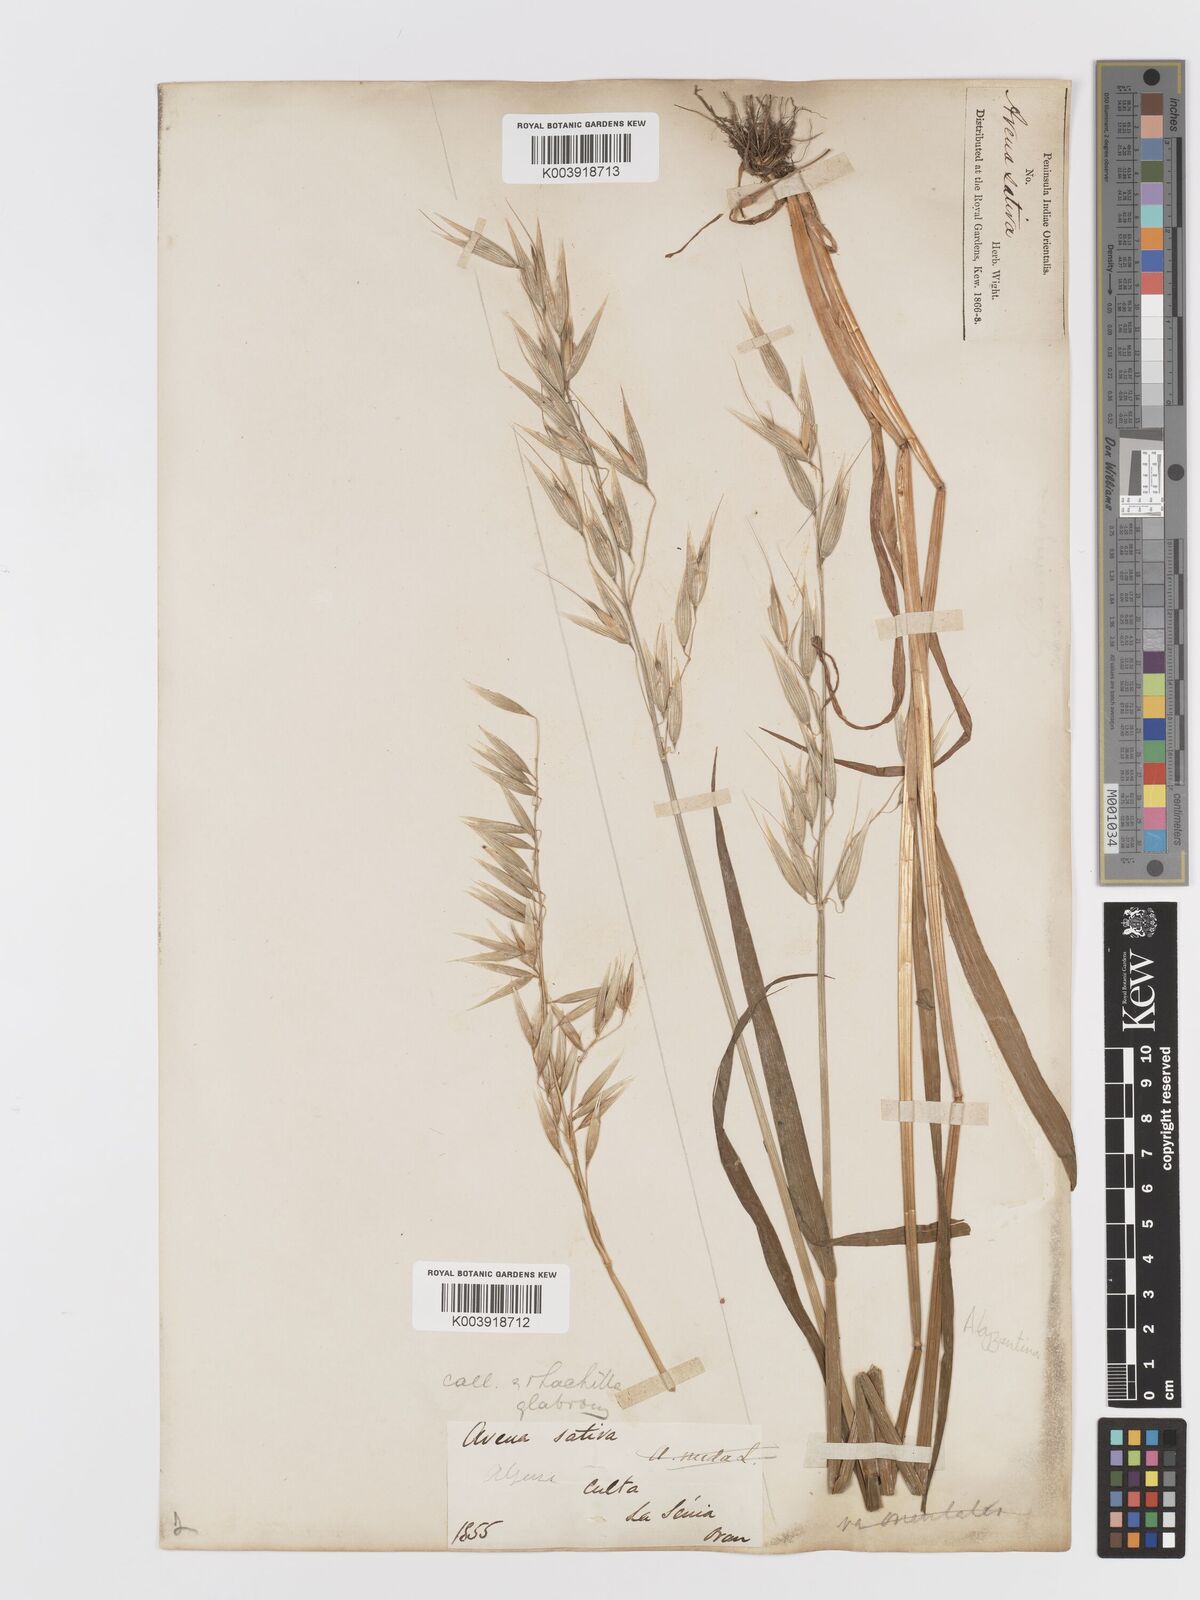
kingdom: Plantae
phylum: Tracheophyta
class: Liliopsida
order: Poales
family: Poaceae
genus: Avena
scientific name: Avena byzantina
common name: Algerian oat
